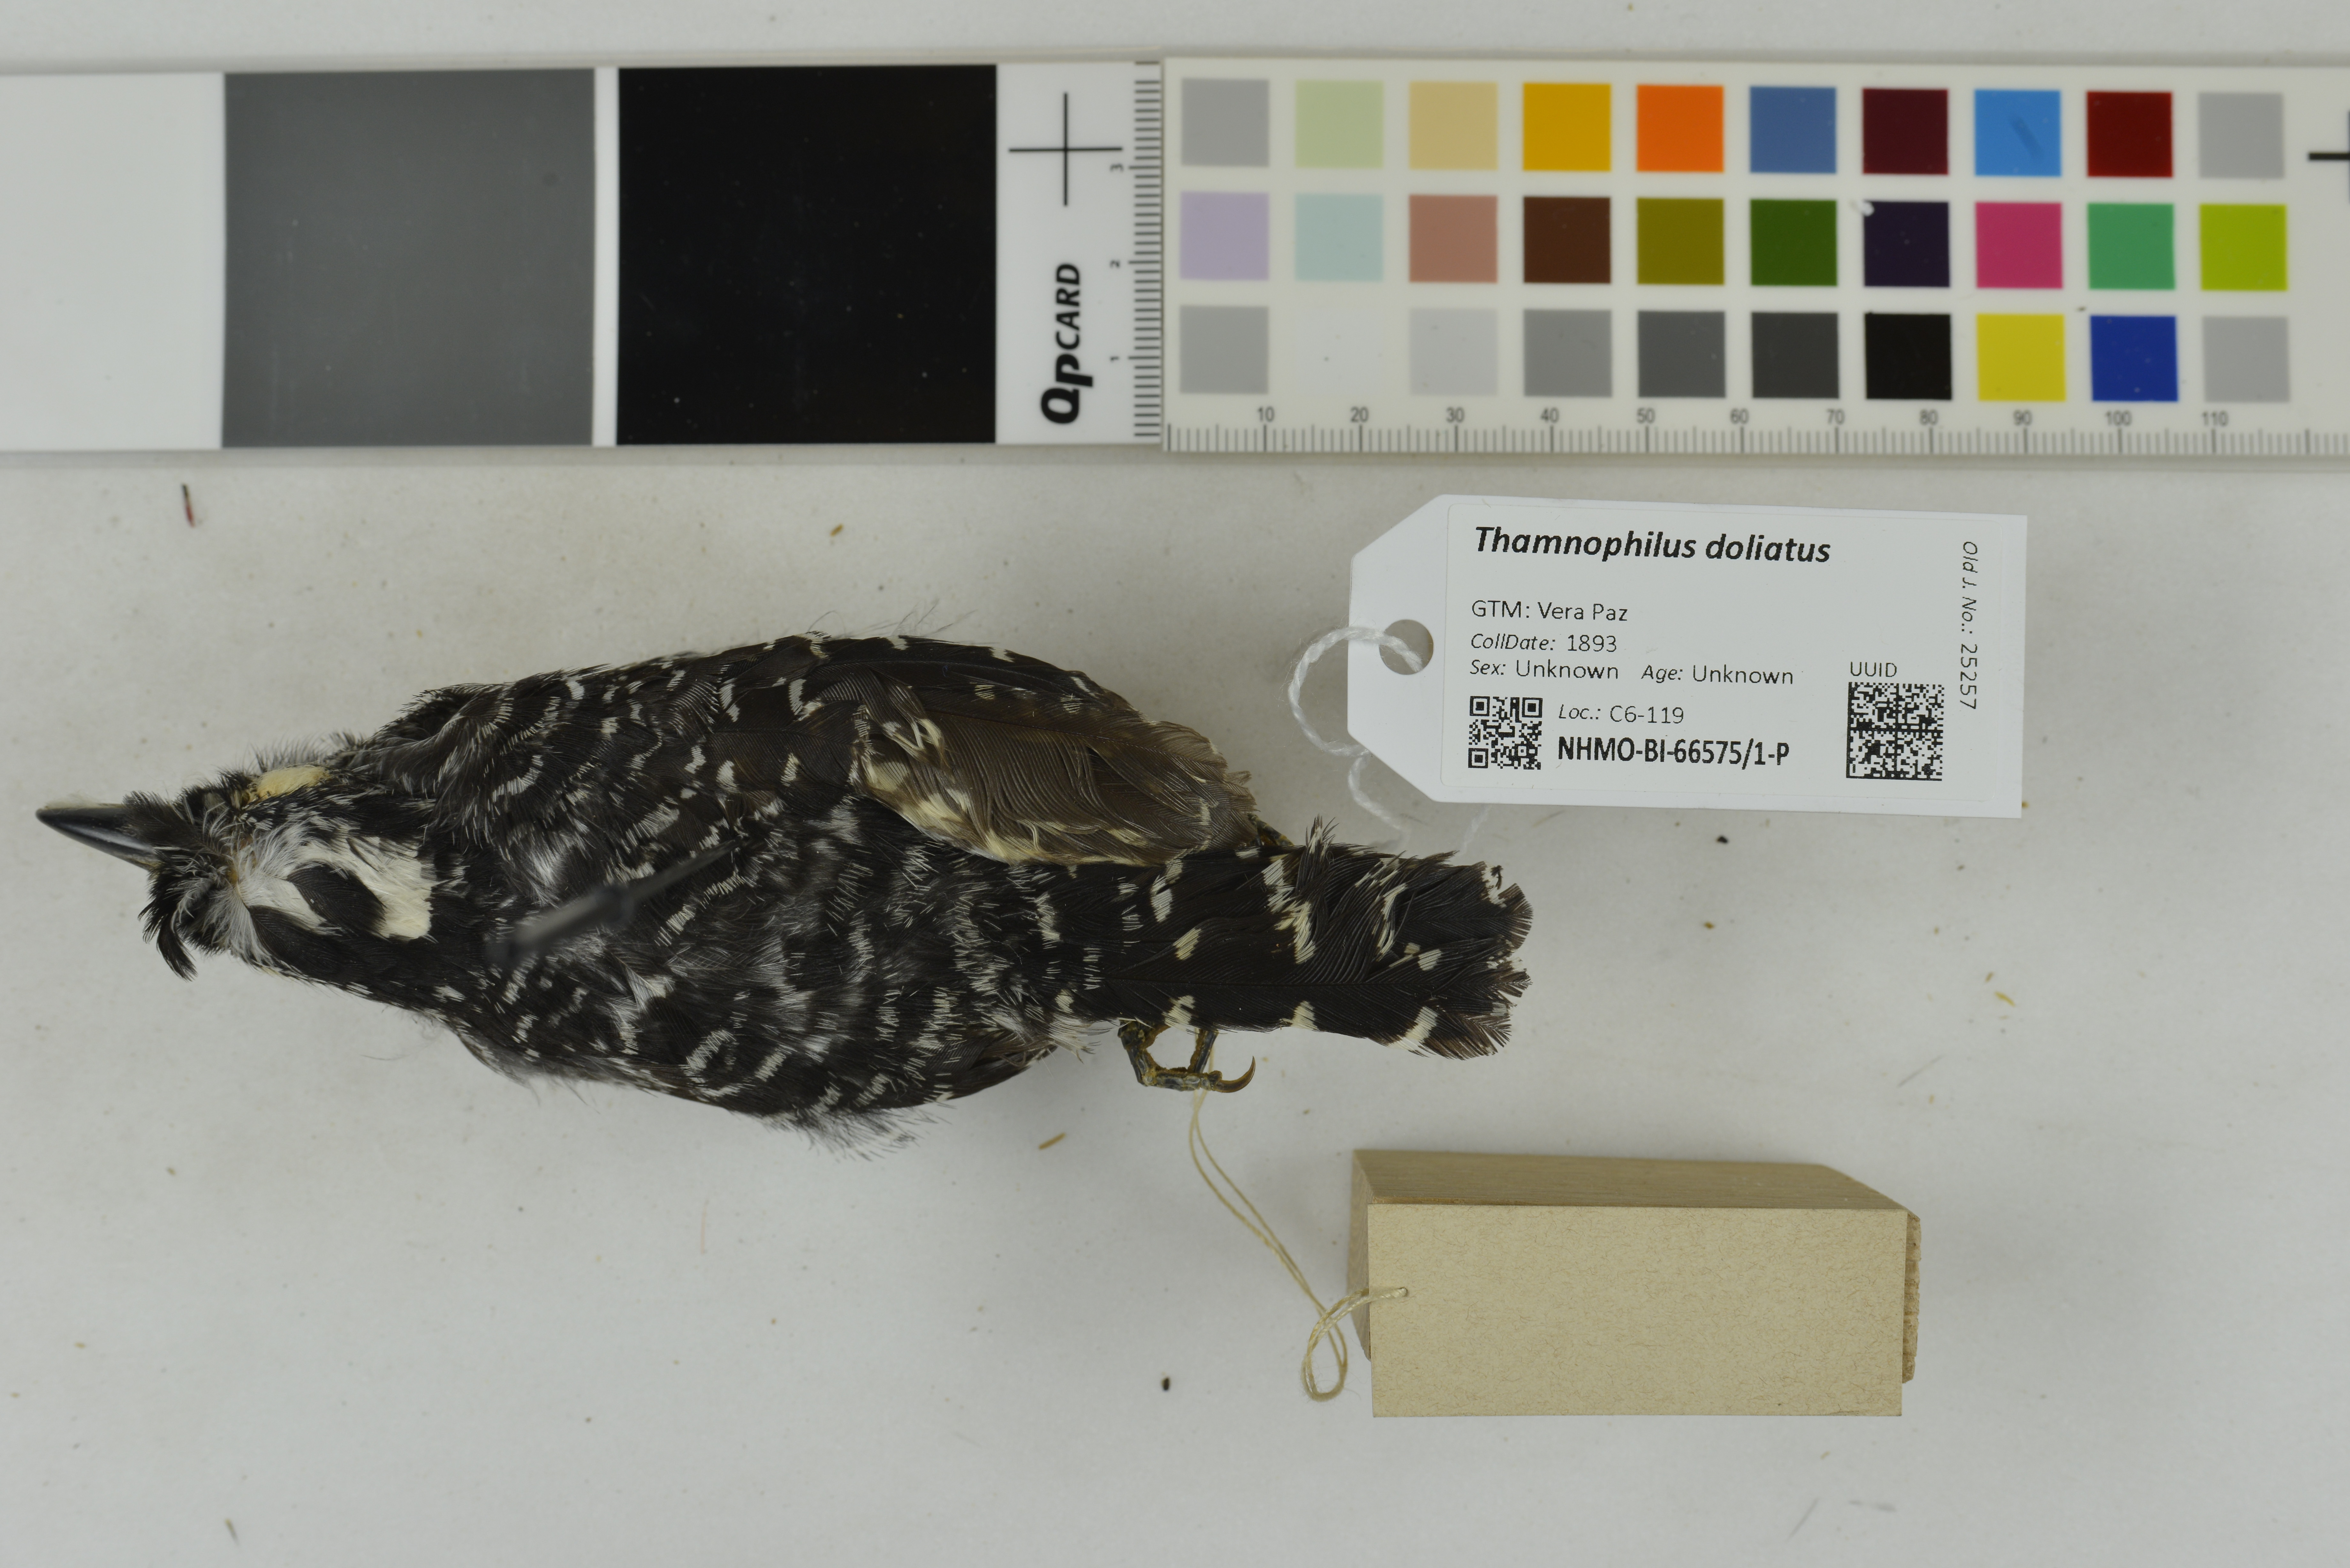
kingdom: Animalia
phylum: Chordata
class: Aves
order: Passeriformes
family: Thamnophilidae
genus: Thamnophilus
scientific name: Thamnophilus doliatus
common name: Barred antshrike
